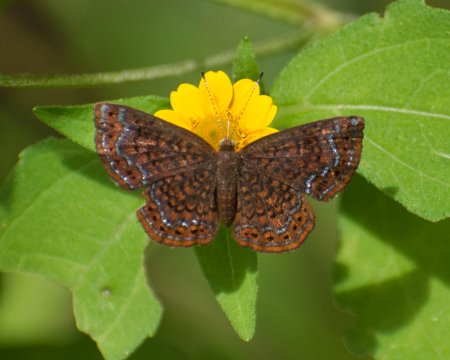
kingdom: Animalia
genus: Calephelis
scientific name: Calephelis laverna
